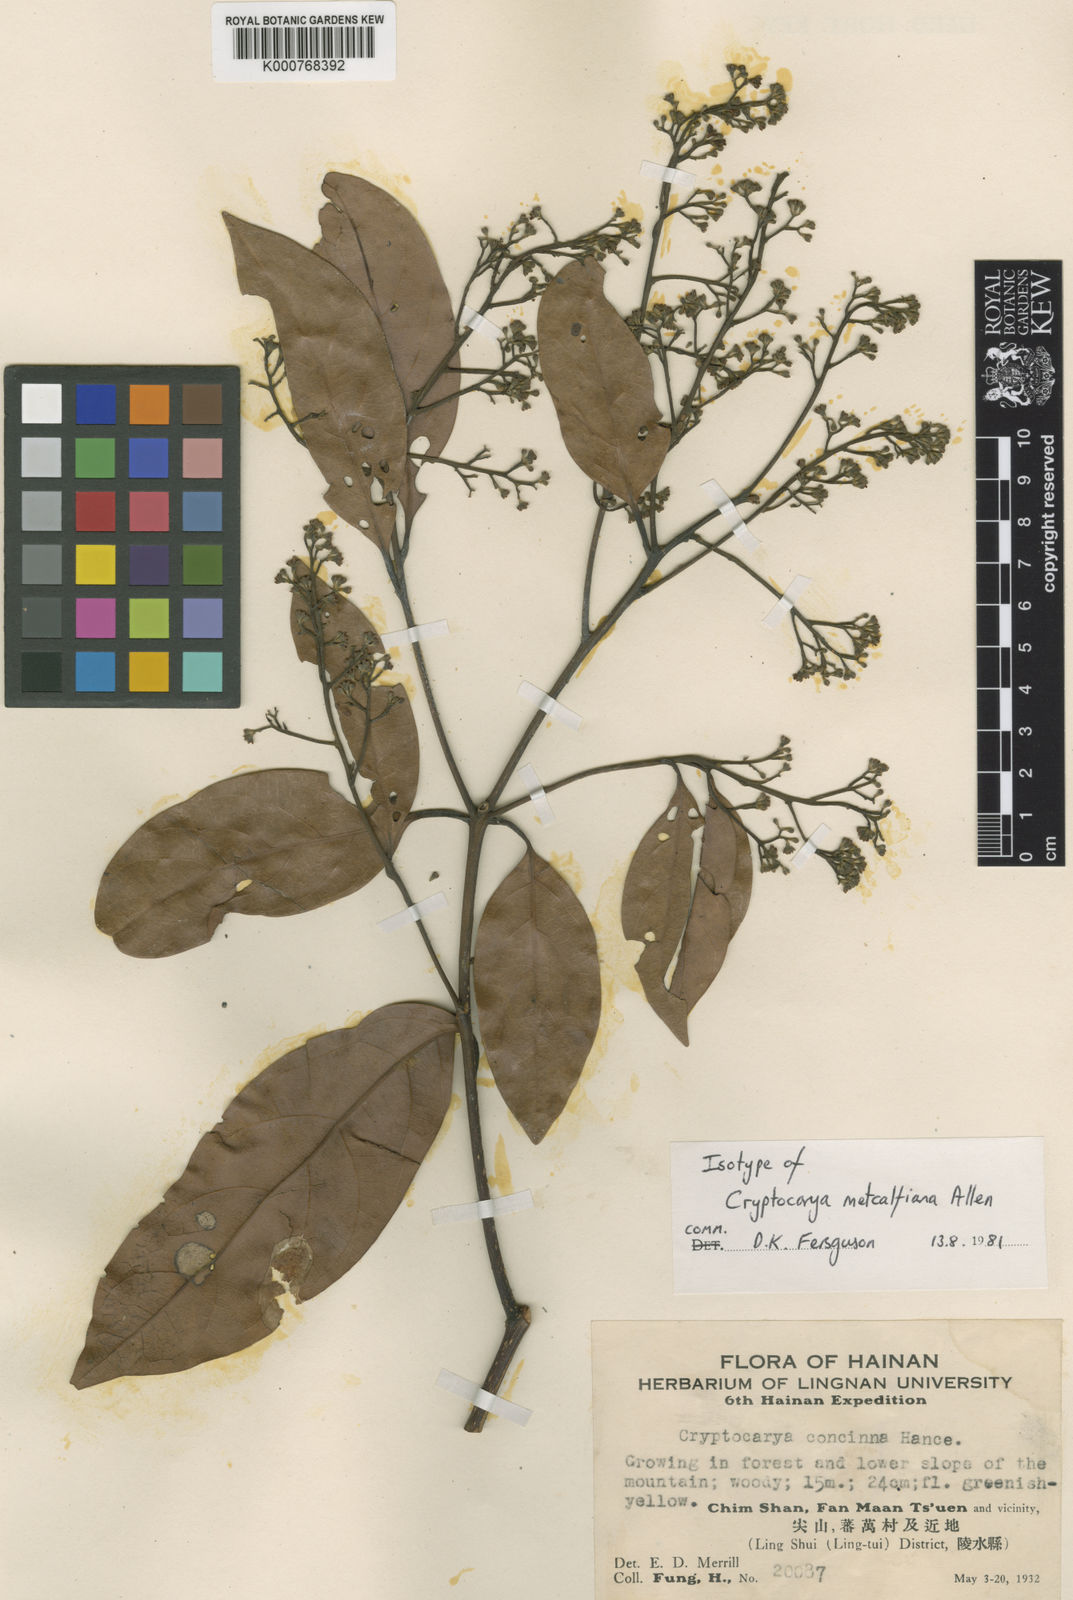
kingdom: Plantae
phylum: Tracheophyta
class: Magnoliopsida
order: Laurales
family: Lauraceae
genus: Cryptocarya
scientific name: Cryptocarya metcalfiana
